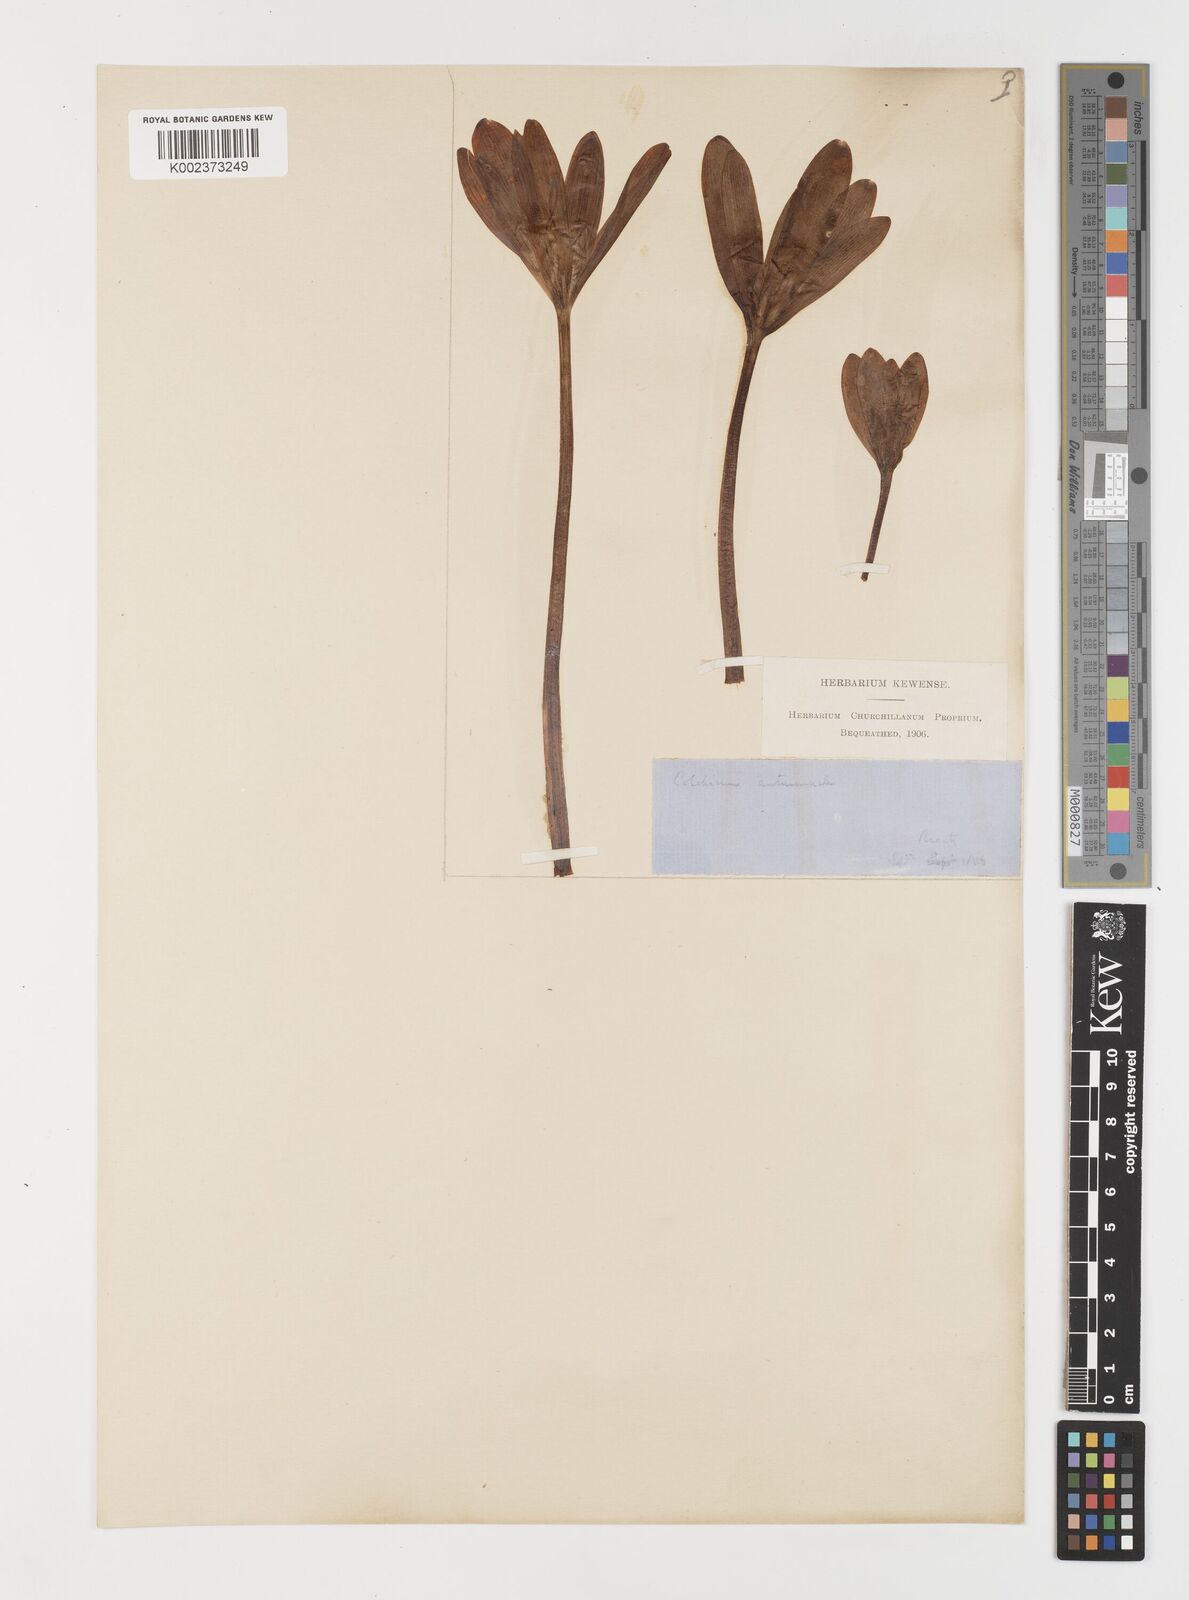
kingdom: Plantae
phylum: Tracheophyta
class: Liliopsida
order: Liliales
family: Colchicaceae
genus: Colchicum
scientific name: Colchicum autumnale
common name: Autumn crocus
